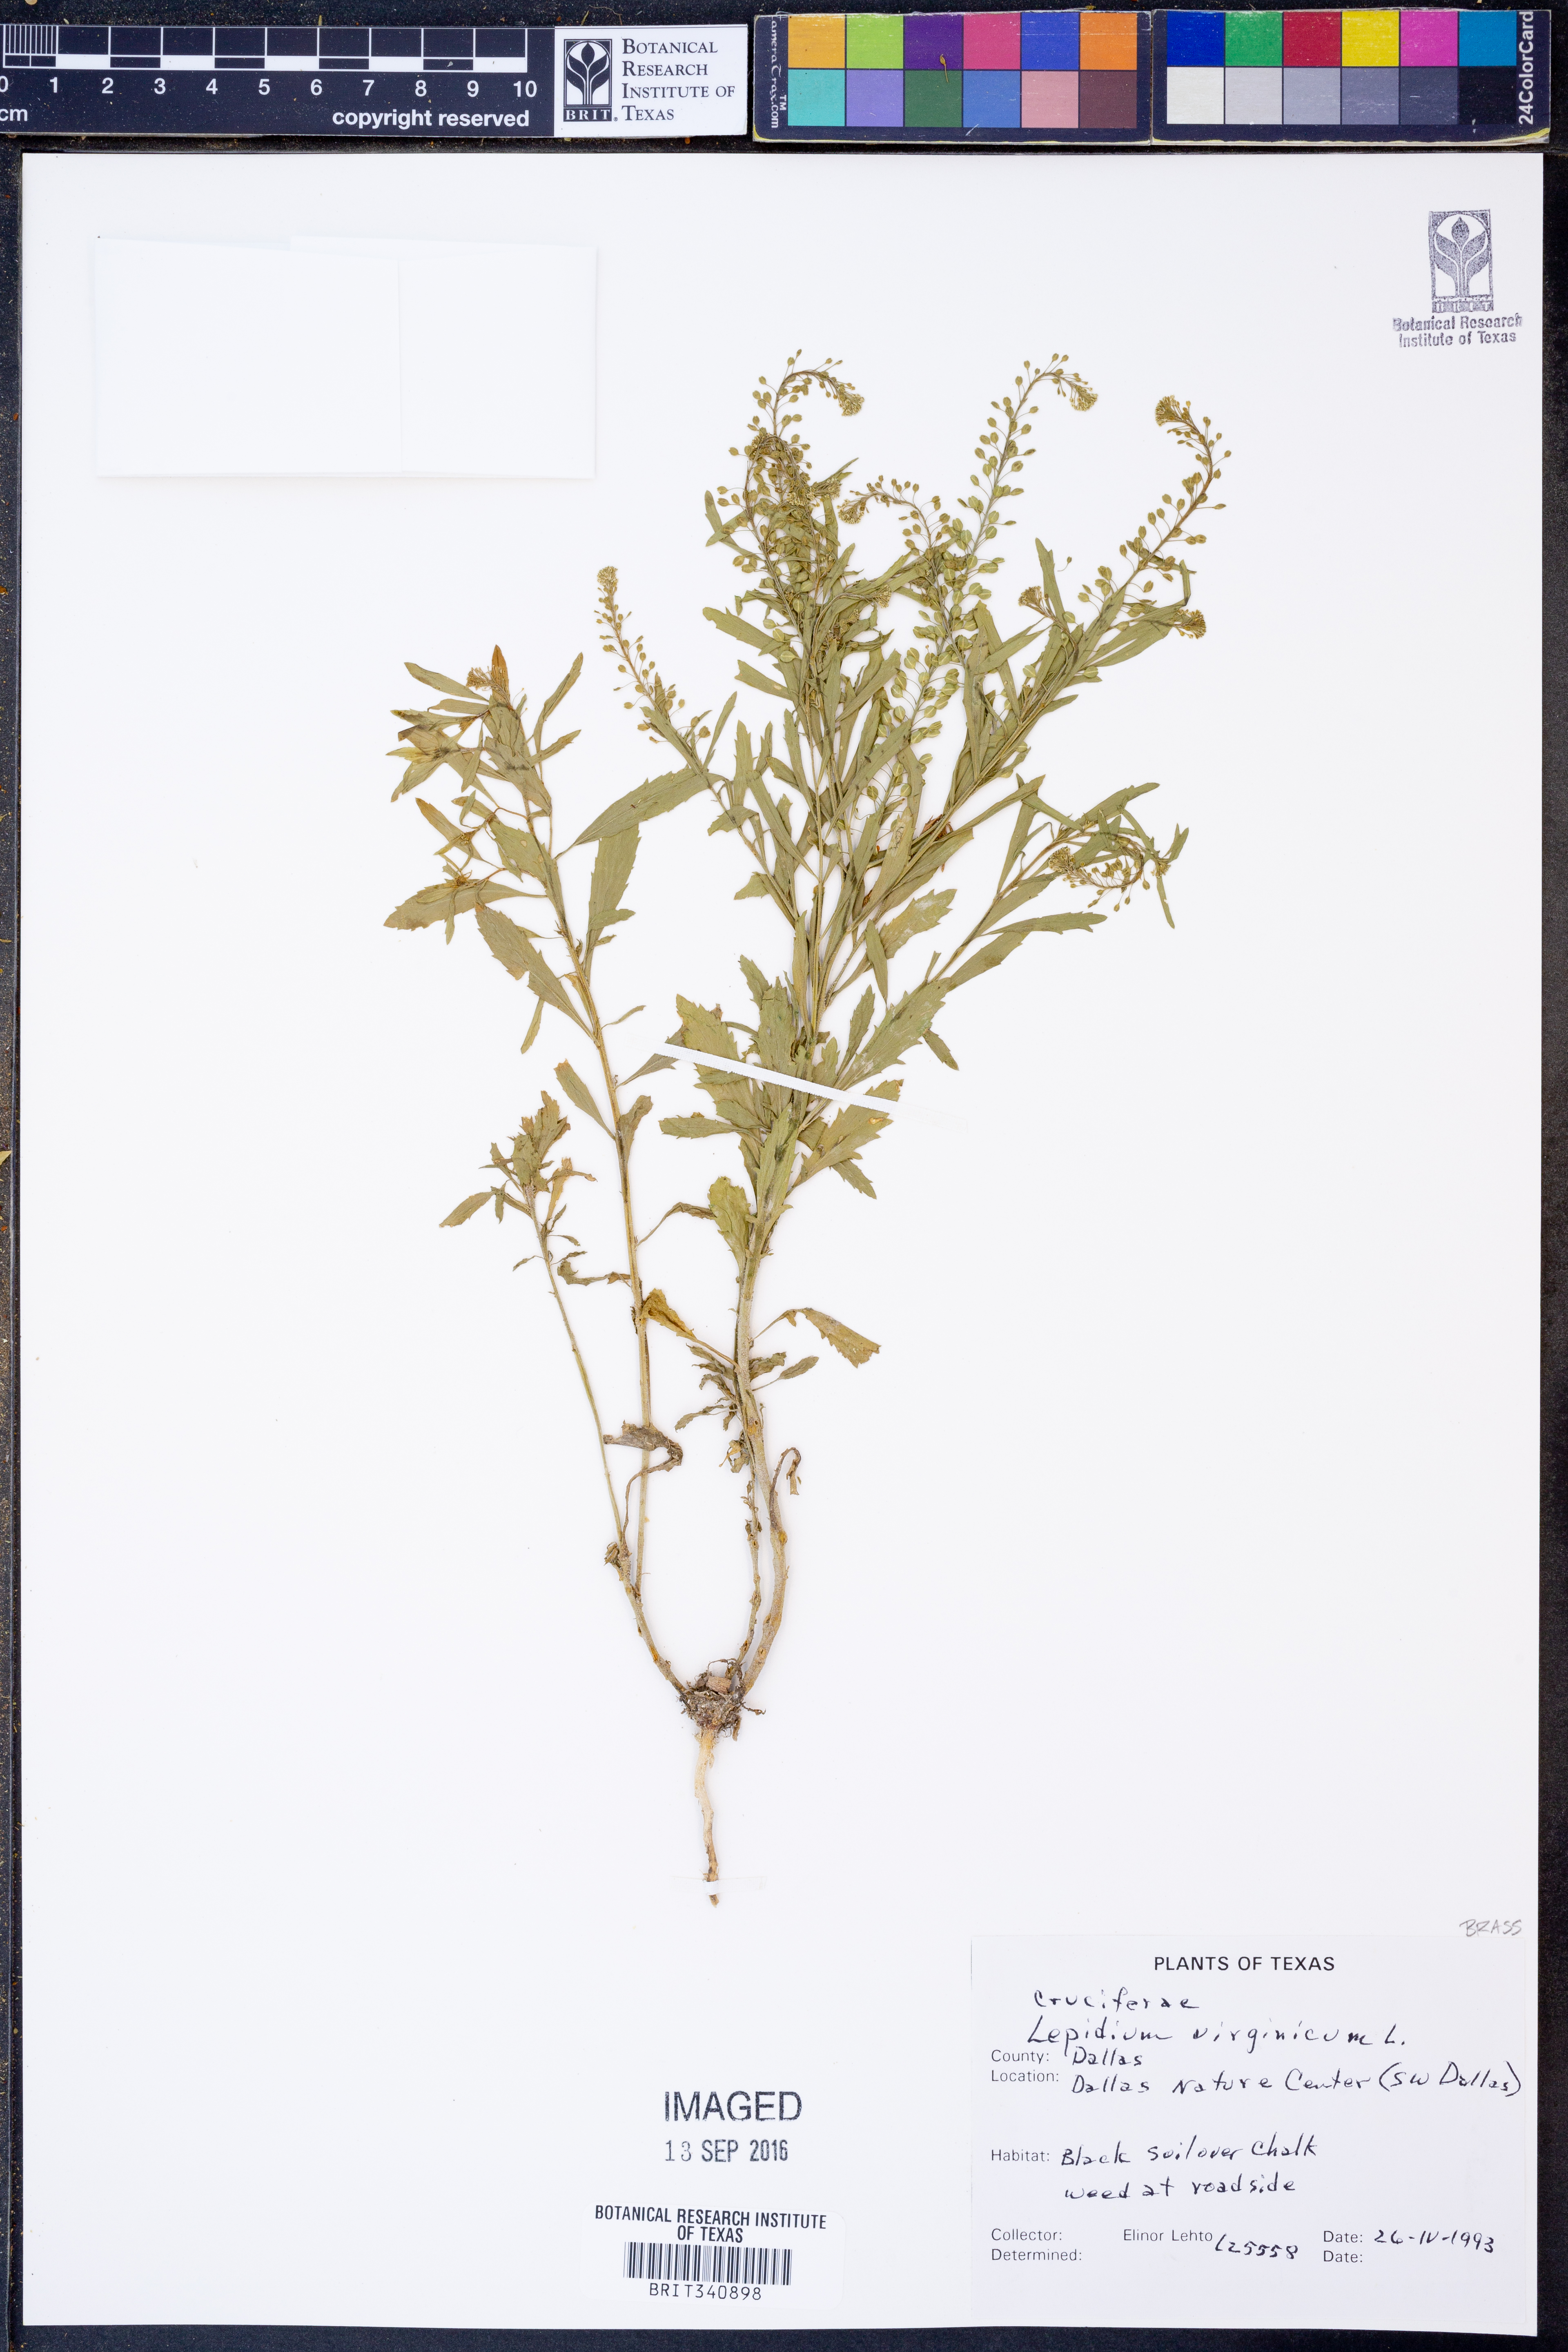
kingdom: Plantae
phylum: Tracheophyta
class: Magnoliopsida
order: Brassicales
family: Brassicaceae
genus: Lepidium
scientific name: Lepidium virginicum
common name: Least pepperwort
